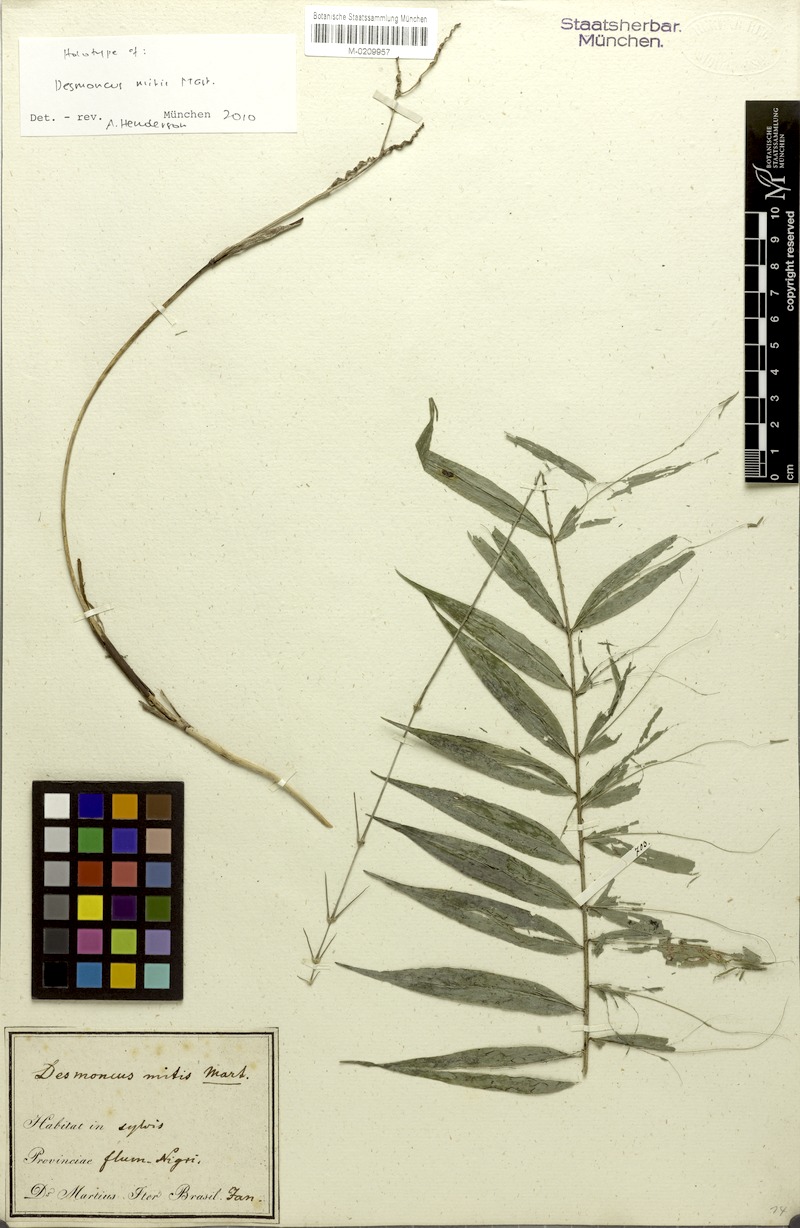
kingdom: Plantae
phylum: Tracheophyta
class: Liliopsida
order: Arecales
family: Arecaceae
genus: Desmoncus
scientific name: Desmoncus mitis
